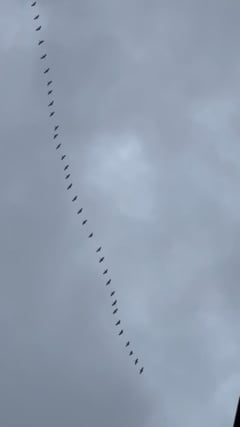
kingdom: Animalia
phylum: Chordata
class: Aves
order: Gruiformes
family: Gruidae
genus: Grus
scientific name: Grus grus
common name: Common crane
